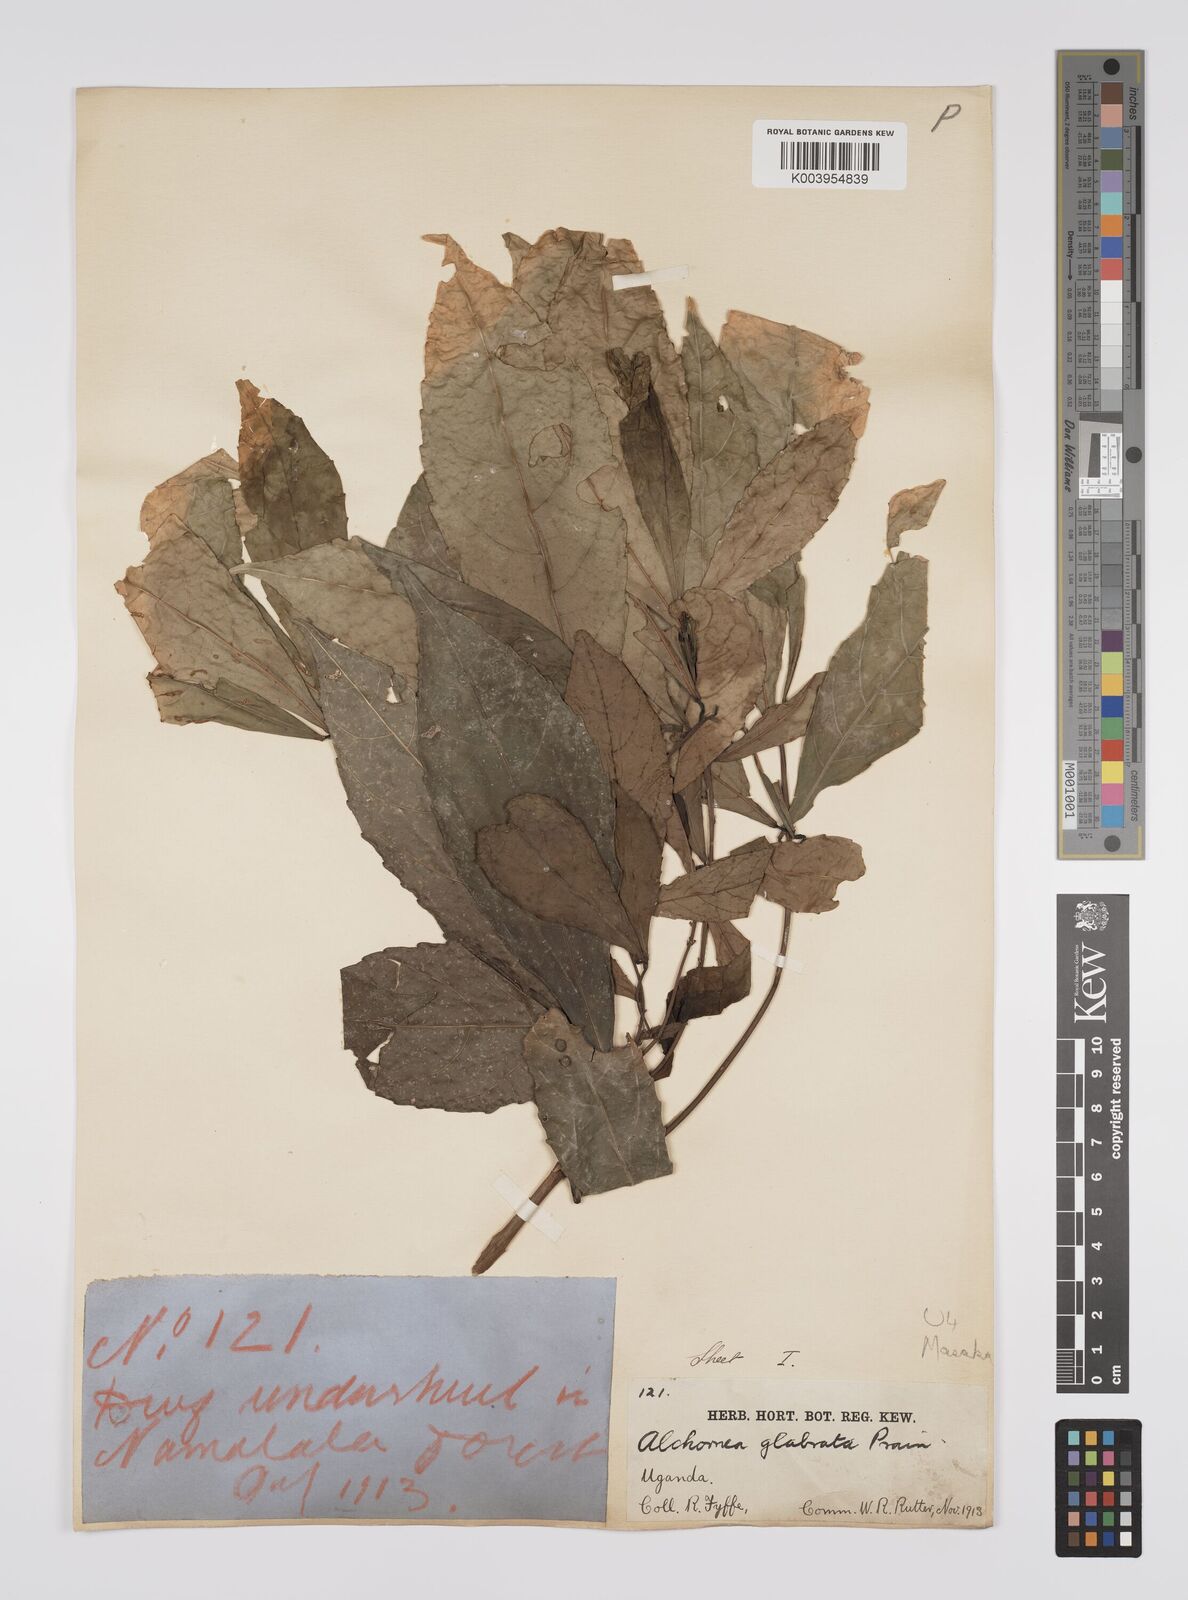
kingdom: Plantae
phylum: Tracheophyta
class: Magnoliopsida
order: Malpighiales
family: Euphorbiaceae
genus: Alchornea
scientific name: Alchornea hirtella
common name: Forest bead-string
